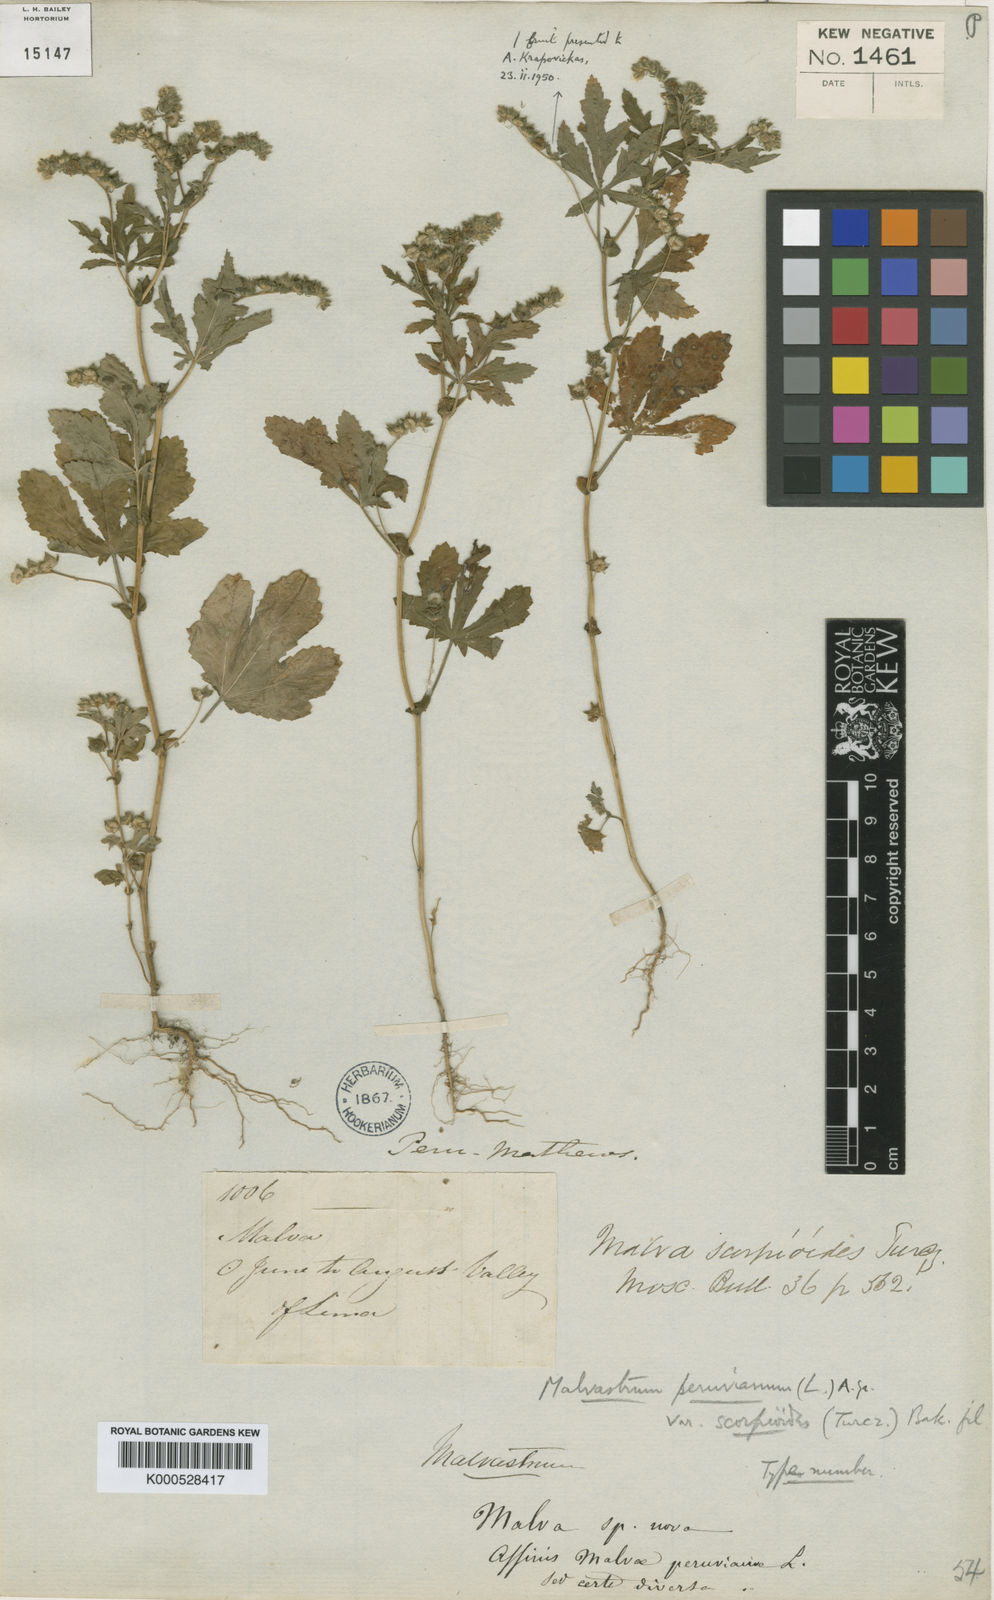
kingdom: Plantae
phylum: Tracheophyta
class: Magnoliopsida
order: Malvales
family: Malvaceae
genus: Urocarpidium
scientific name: Urocarpidium
